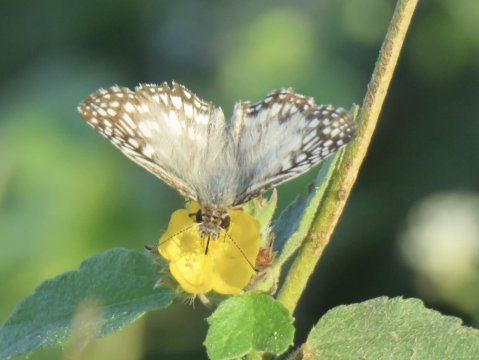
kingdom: Animalia
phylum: Arthropoda
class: Insecta
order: Lepidoptera
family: Hesperiidae
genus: Pyrgus
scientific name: Pyrgus oileus
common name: Tropical Checkered-Skipper
